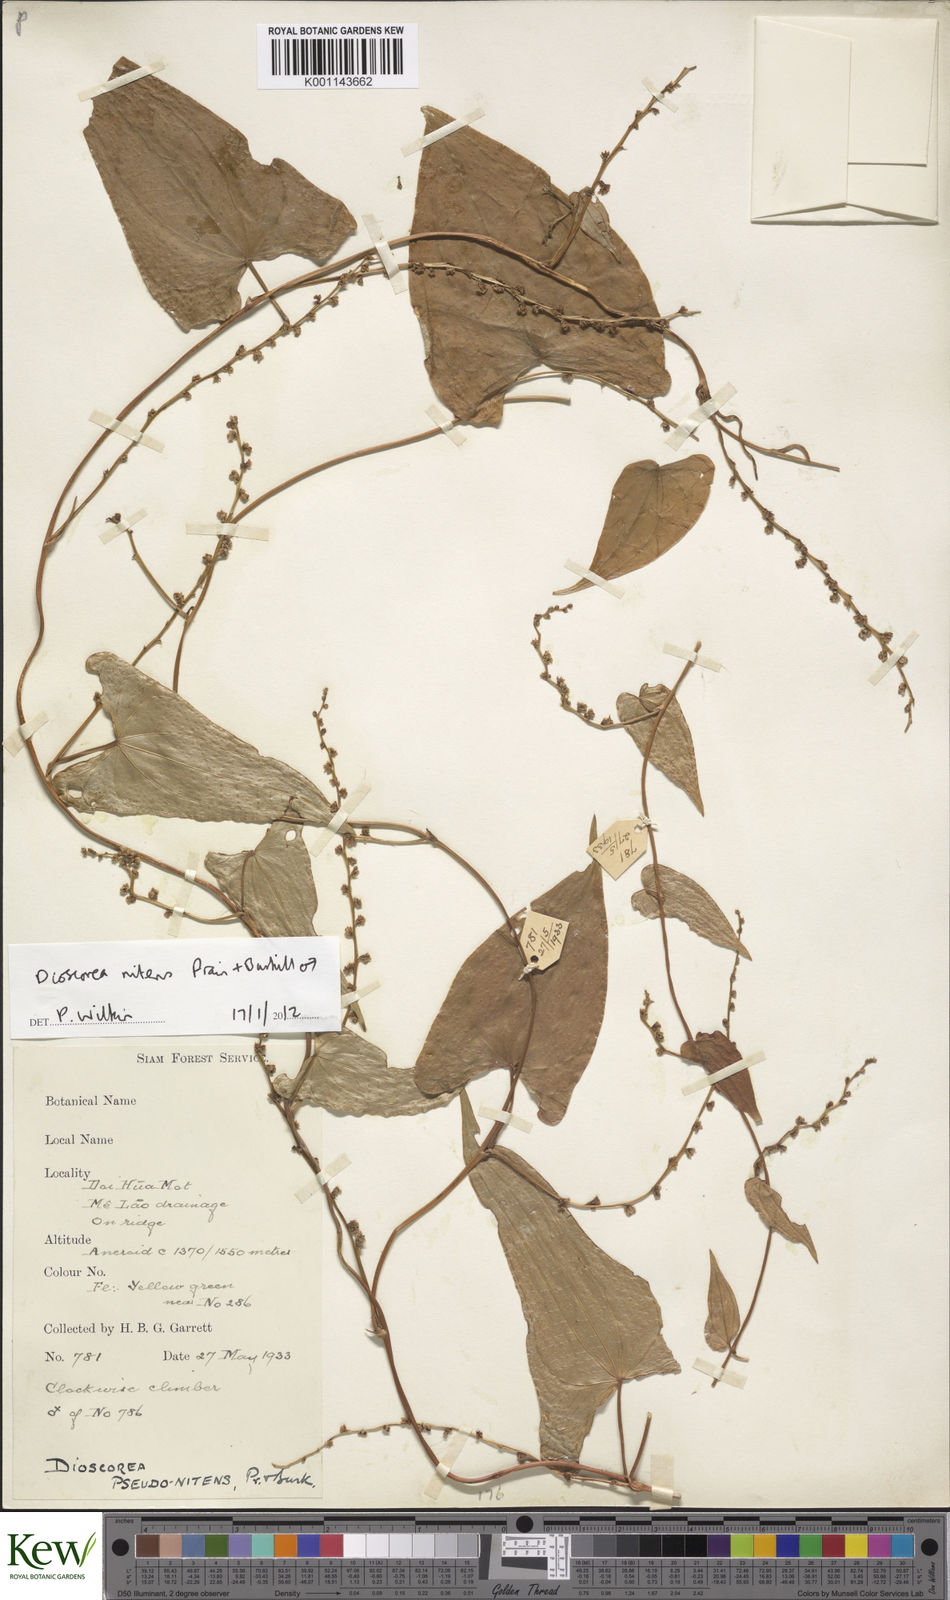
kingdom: Plantae
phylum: Tracheophyta
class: Liliopsida
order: Dioscoreales
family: Dioscoreaceae
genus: Dioscorea
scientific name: Dioscorea nitens
